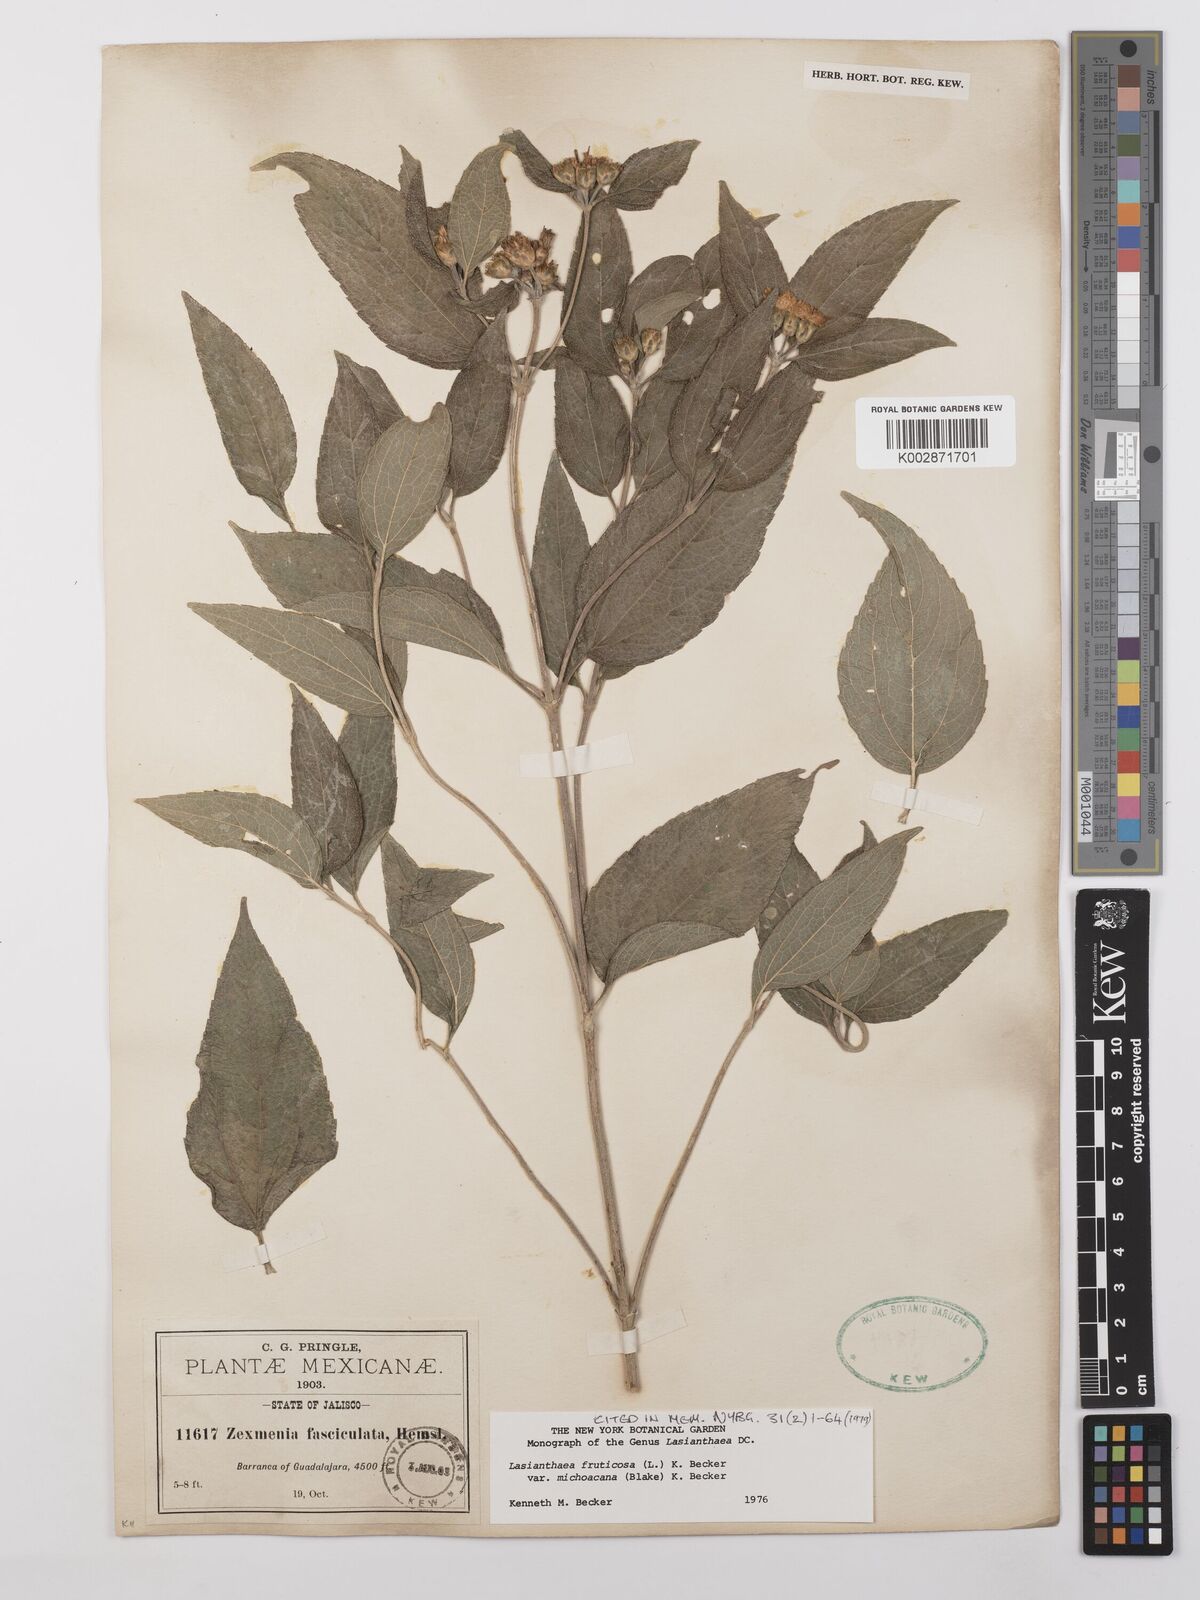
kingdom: Plantae
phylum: Tracheophyta
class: Magnoliopsida
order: Asterales
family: Asteraceae
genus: Lasianthaea
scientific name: Lasianthaea fruticosa
